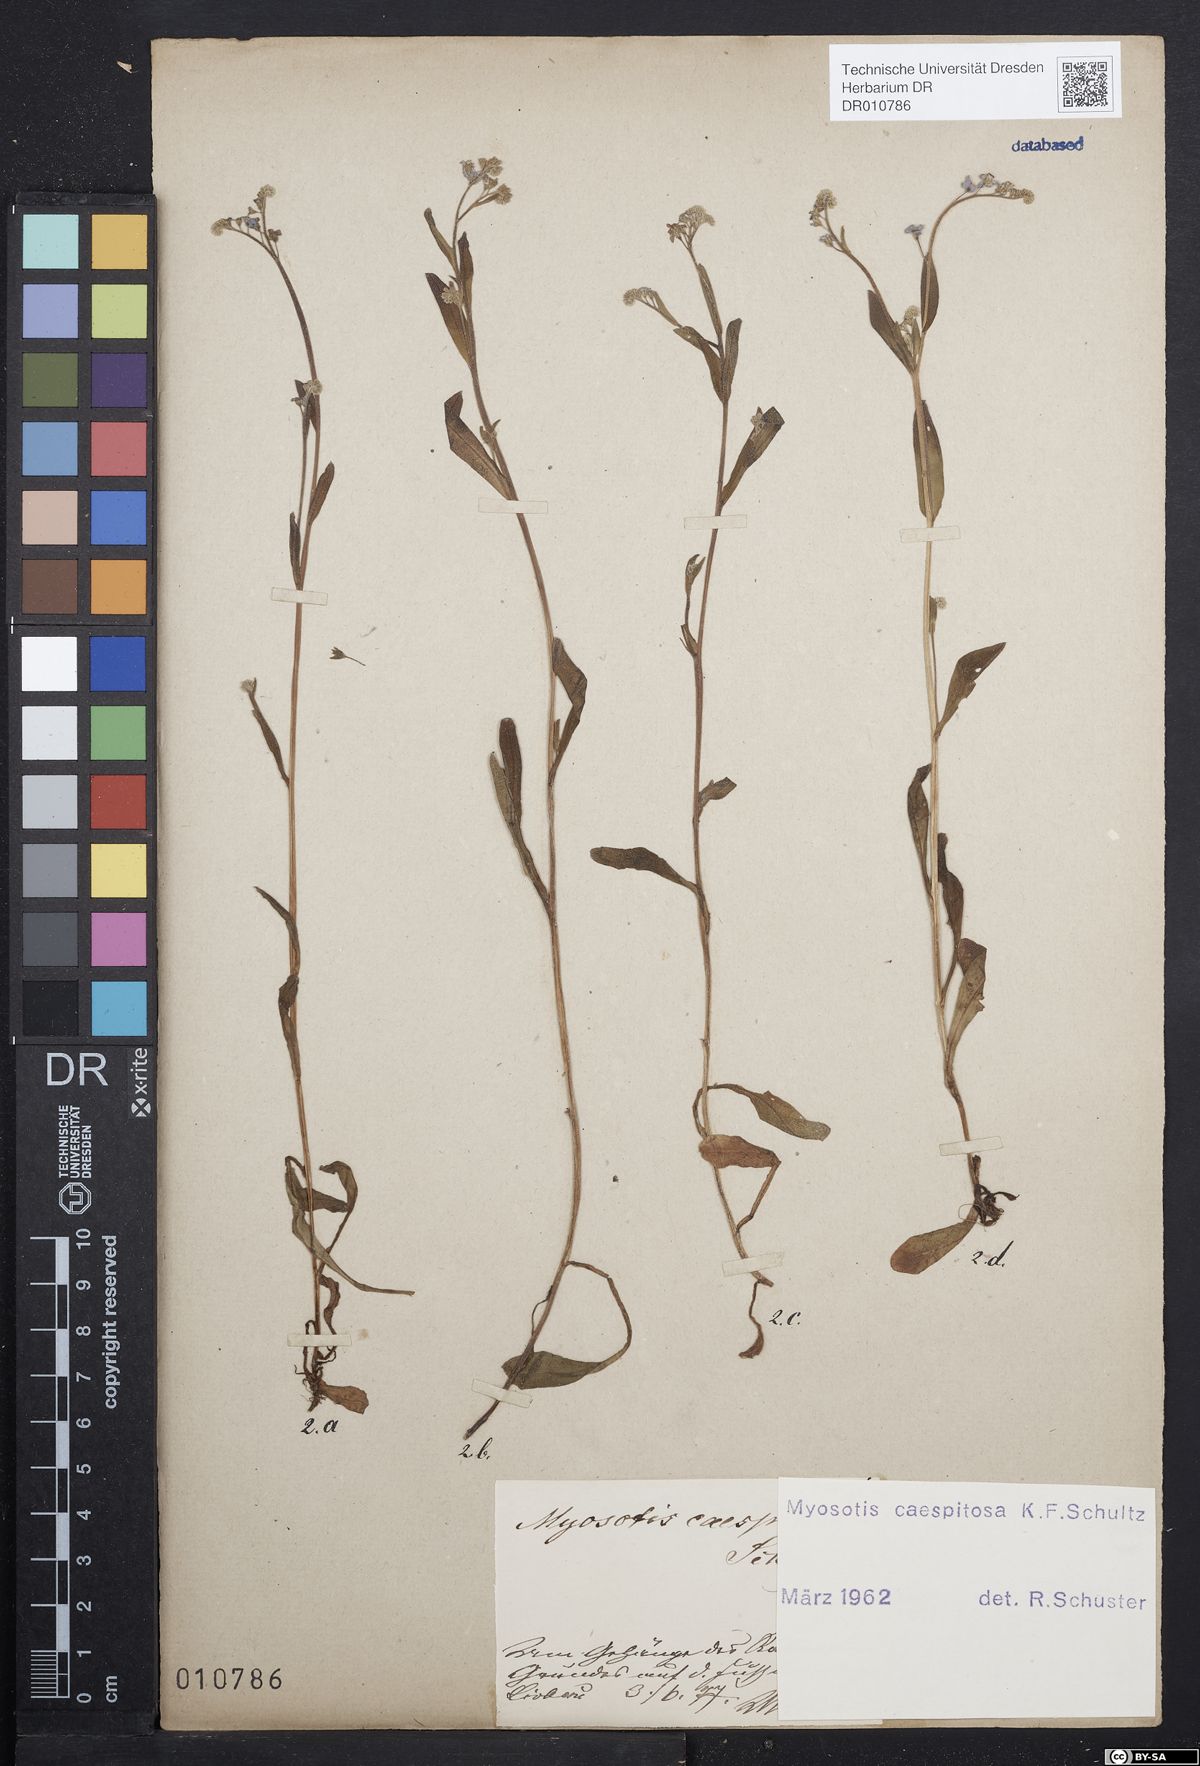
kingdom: Plantae
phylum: Tracheophyta
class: Magnoliopsida
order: Boraginales
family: Boraginaceae
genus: Myosotis
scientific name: Myosotis laxa
